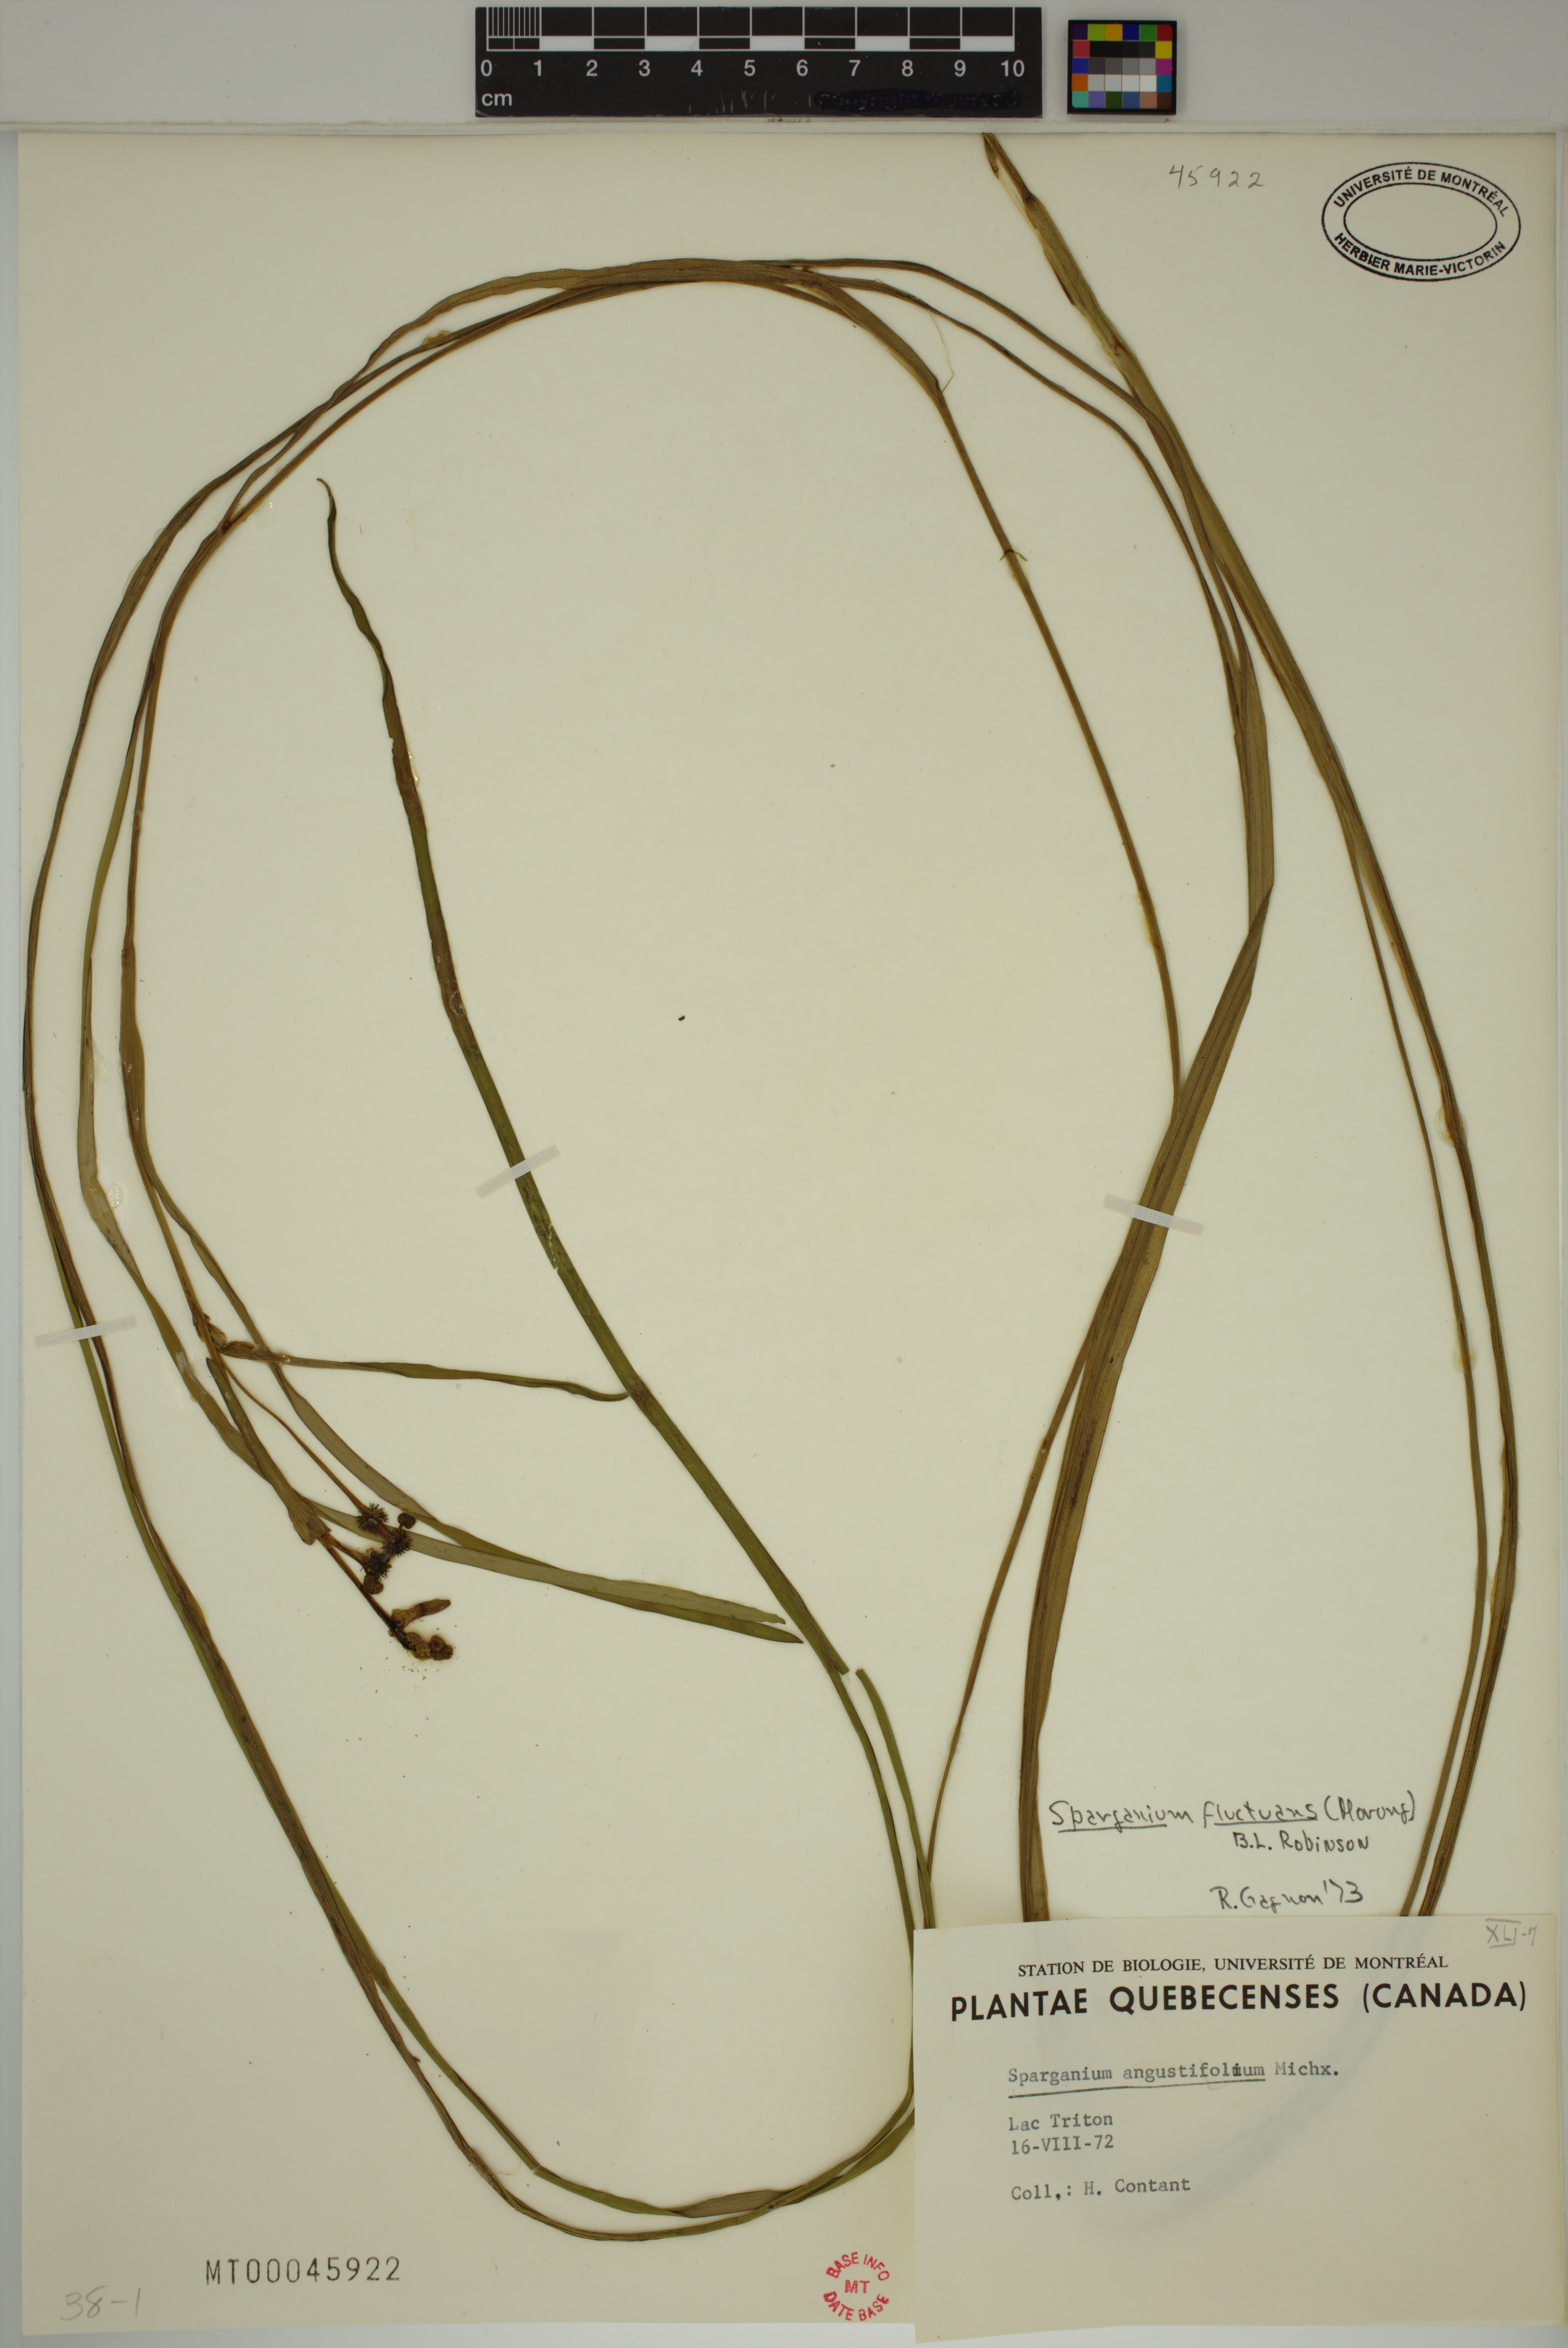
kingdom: Plantae
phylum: Tracheophyta
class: Liliopsida
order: Poales
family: Typhaceae
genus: Sparganium
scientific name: Sparganium fluctuans
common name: Floating burreed
